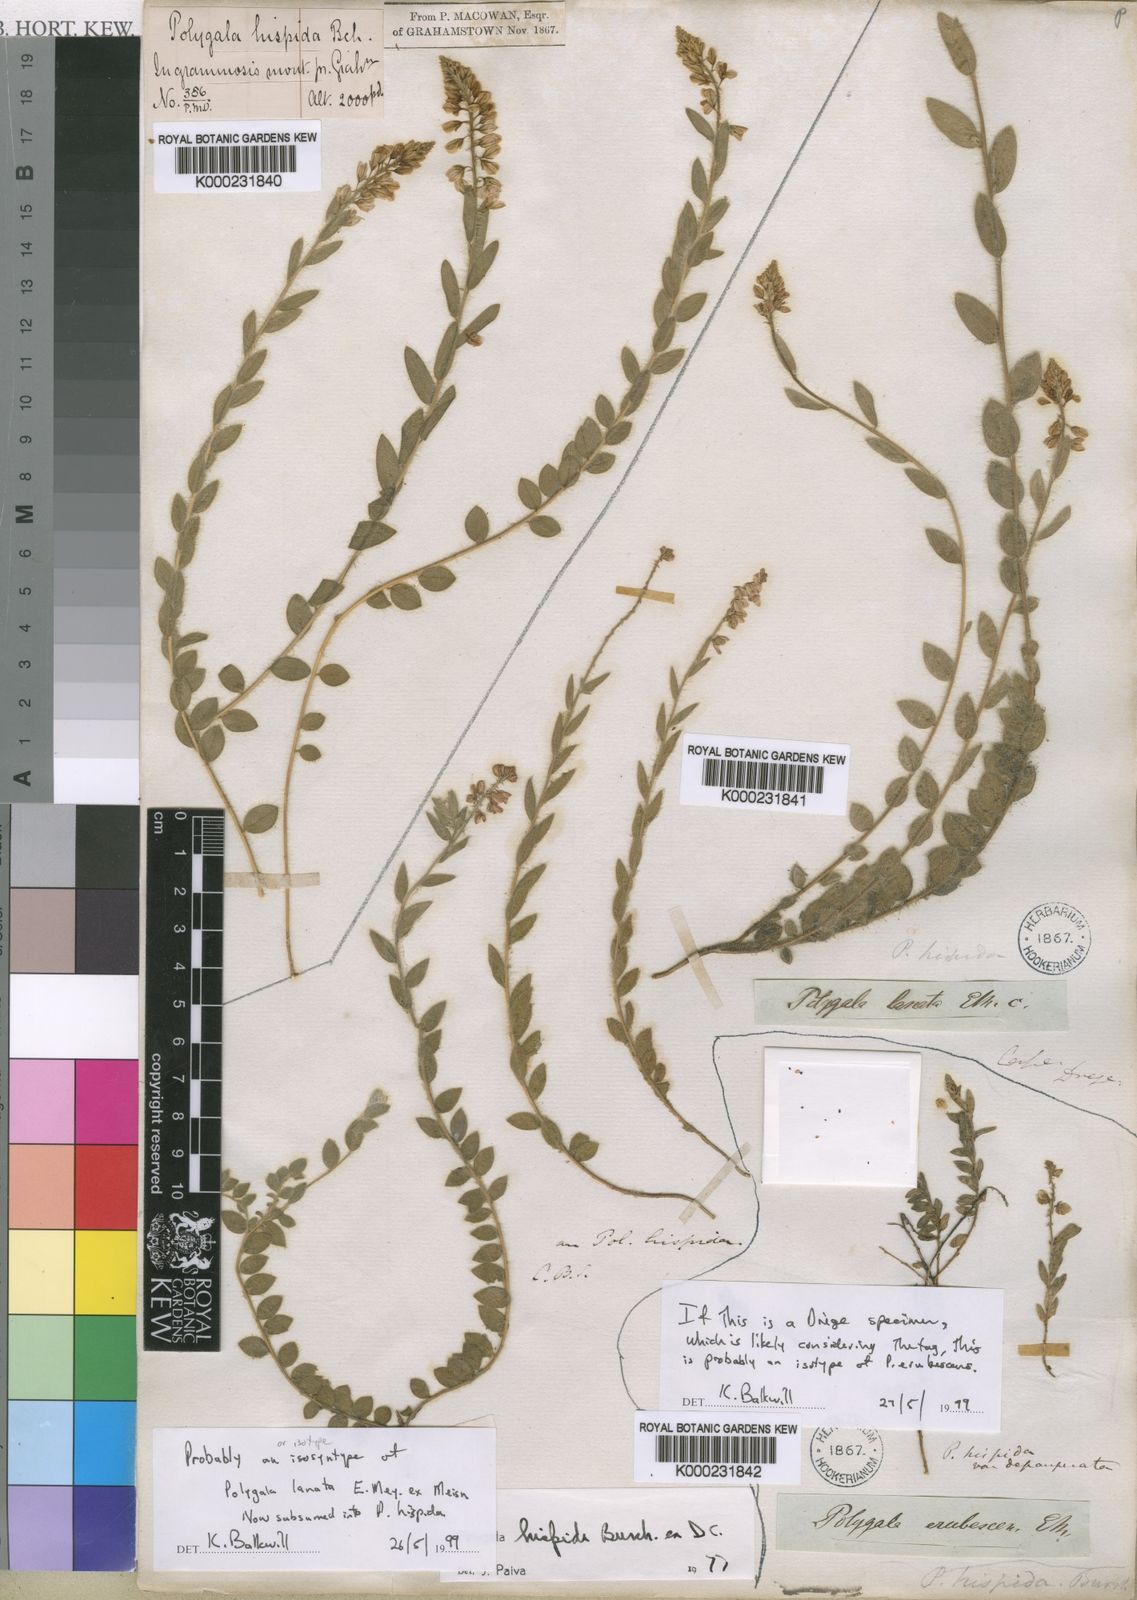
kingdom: Plantae
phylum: Tracheophyta
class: Magnoliopsida
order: Fabales
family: Polygalaceae
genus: Polygala
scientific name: Polygala hispida
